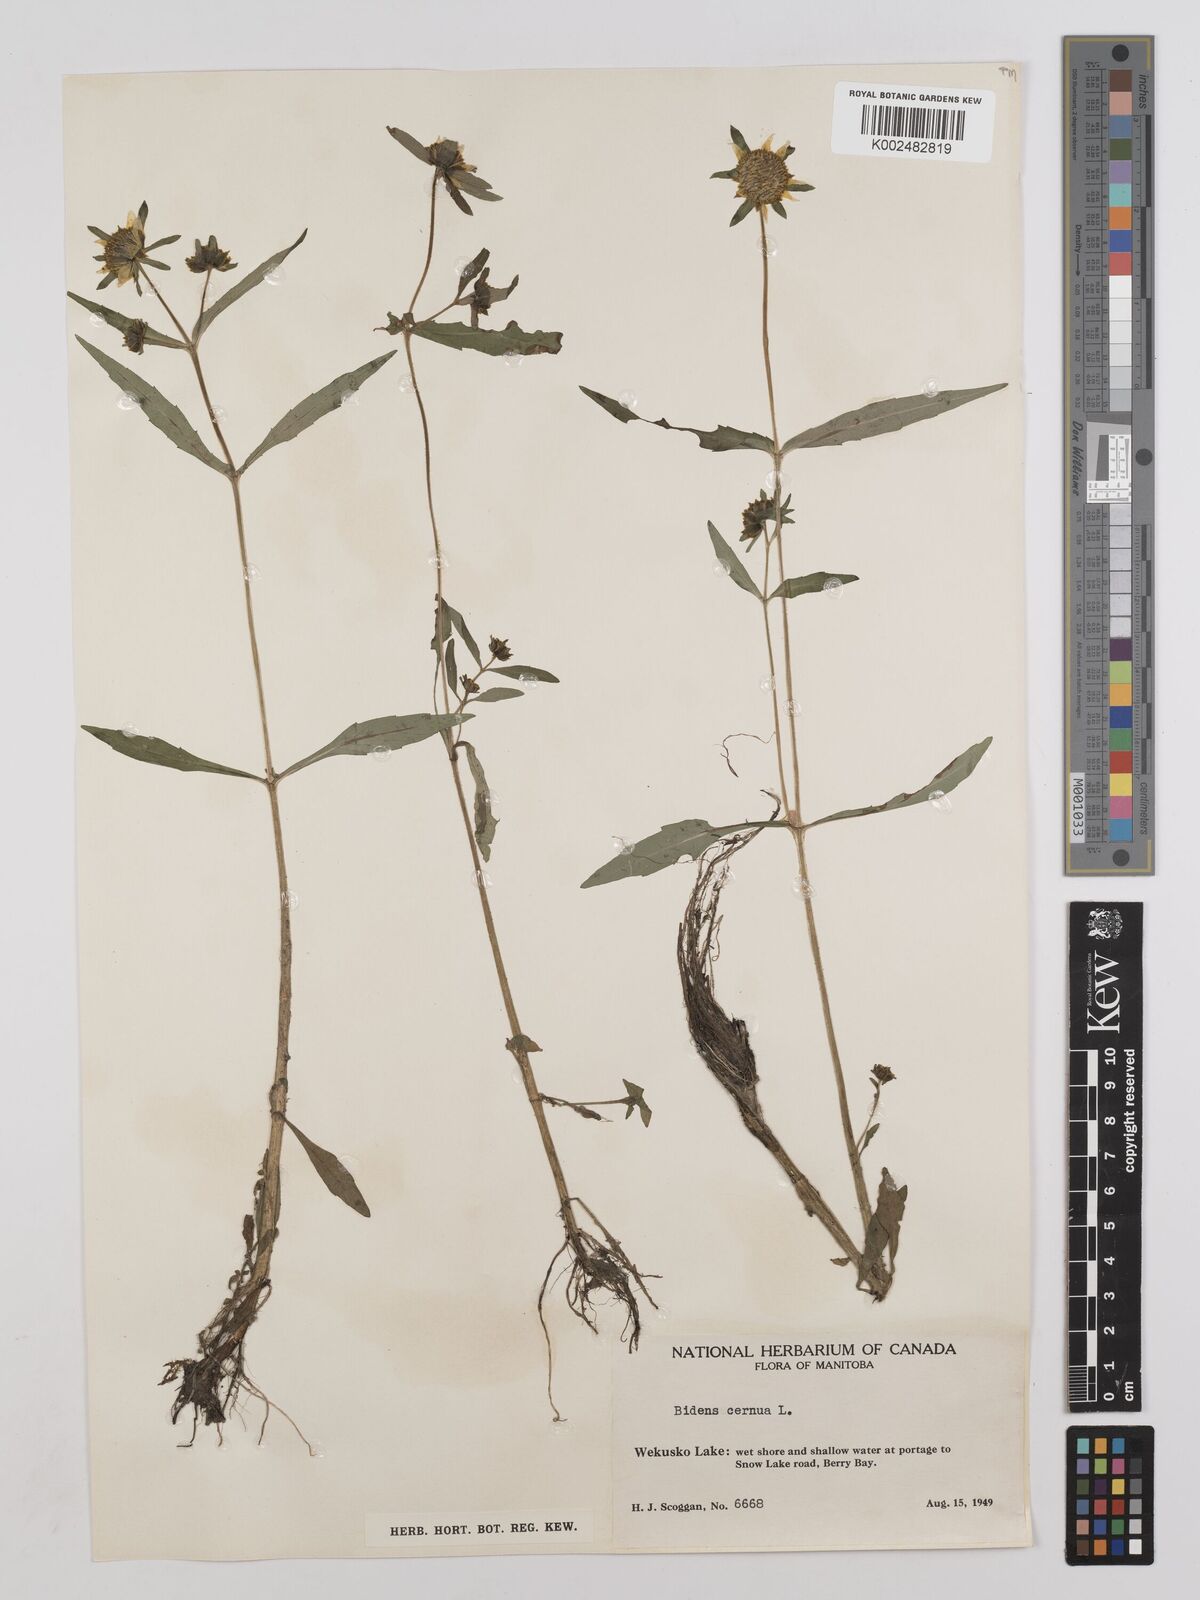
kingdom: Plantae
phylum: Tracheophyta
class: Magnoliopsida
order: Asterales
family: Asteraceae
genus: Bidens
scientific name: Bidens connata
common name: London bur-marigold
